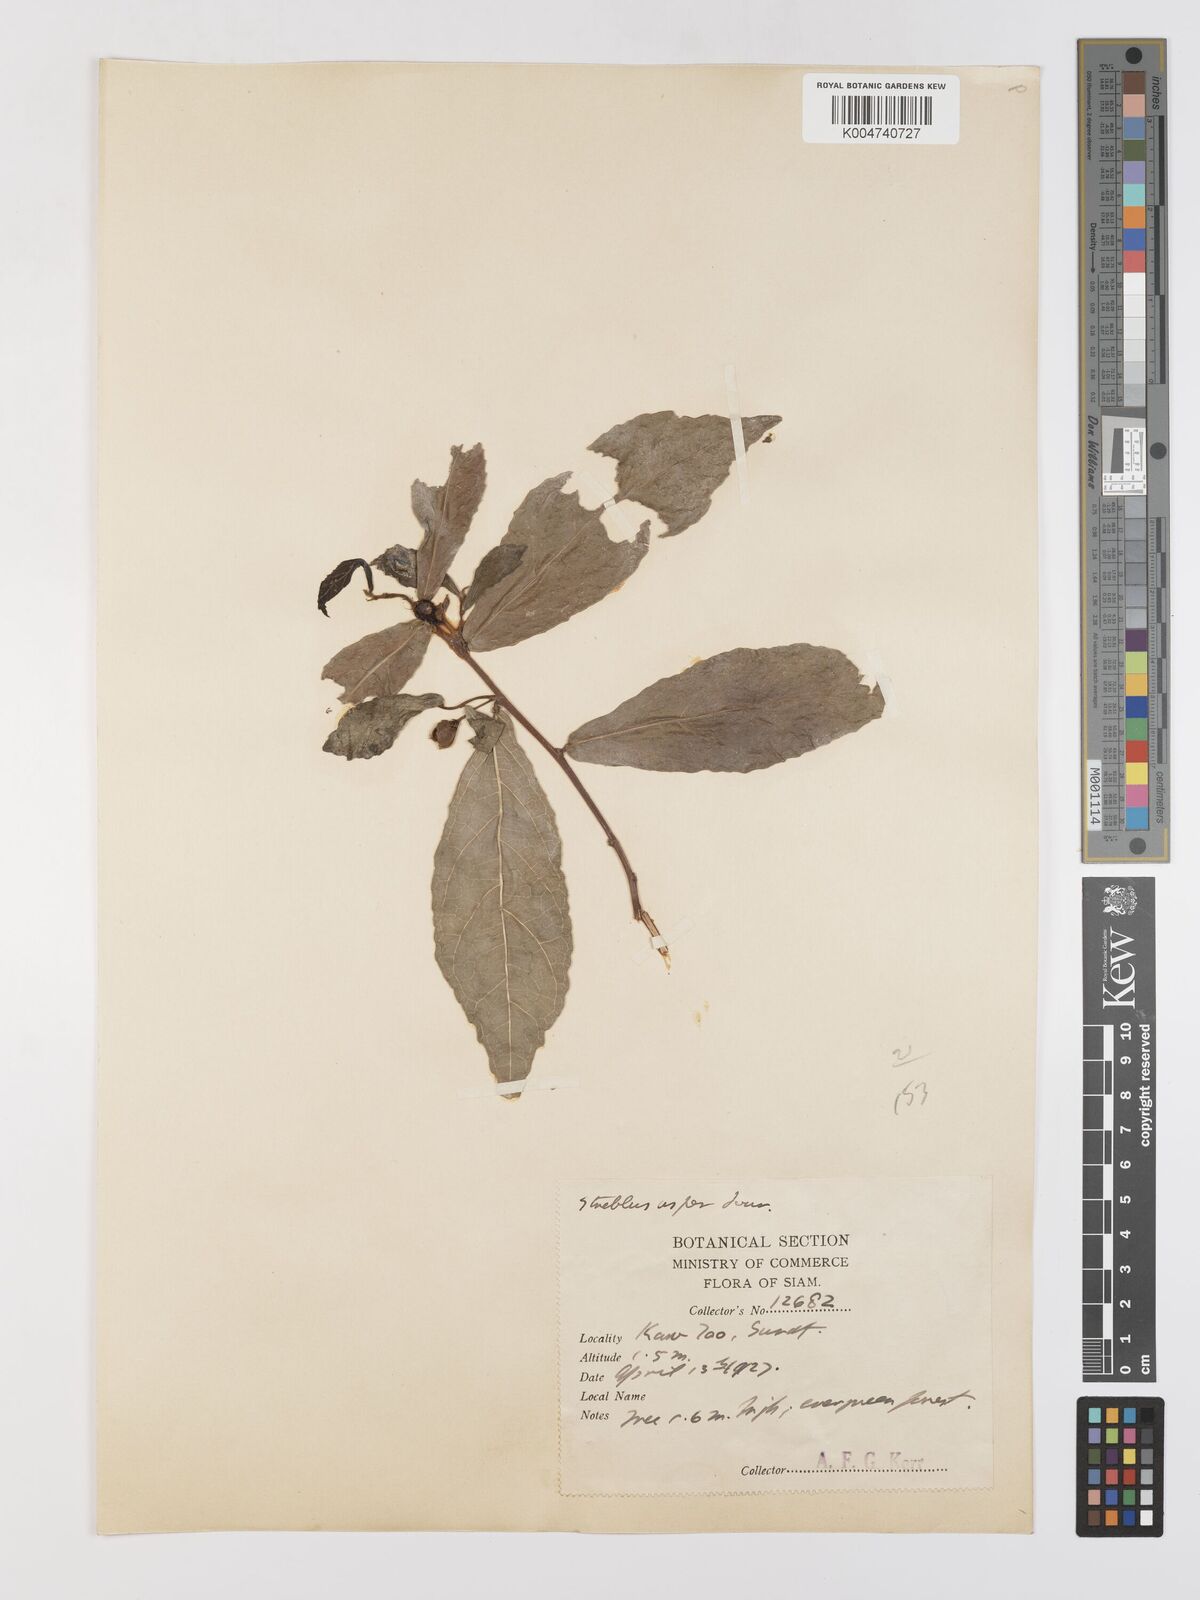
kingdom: Plantae
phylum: Tracheophyta
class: Magnoliopsida
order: Rosales
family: Moraceae
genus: Streblus
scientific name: Streblus asper
